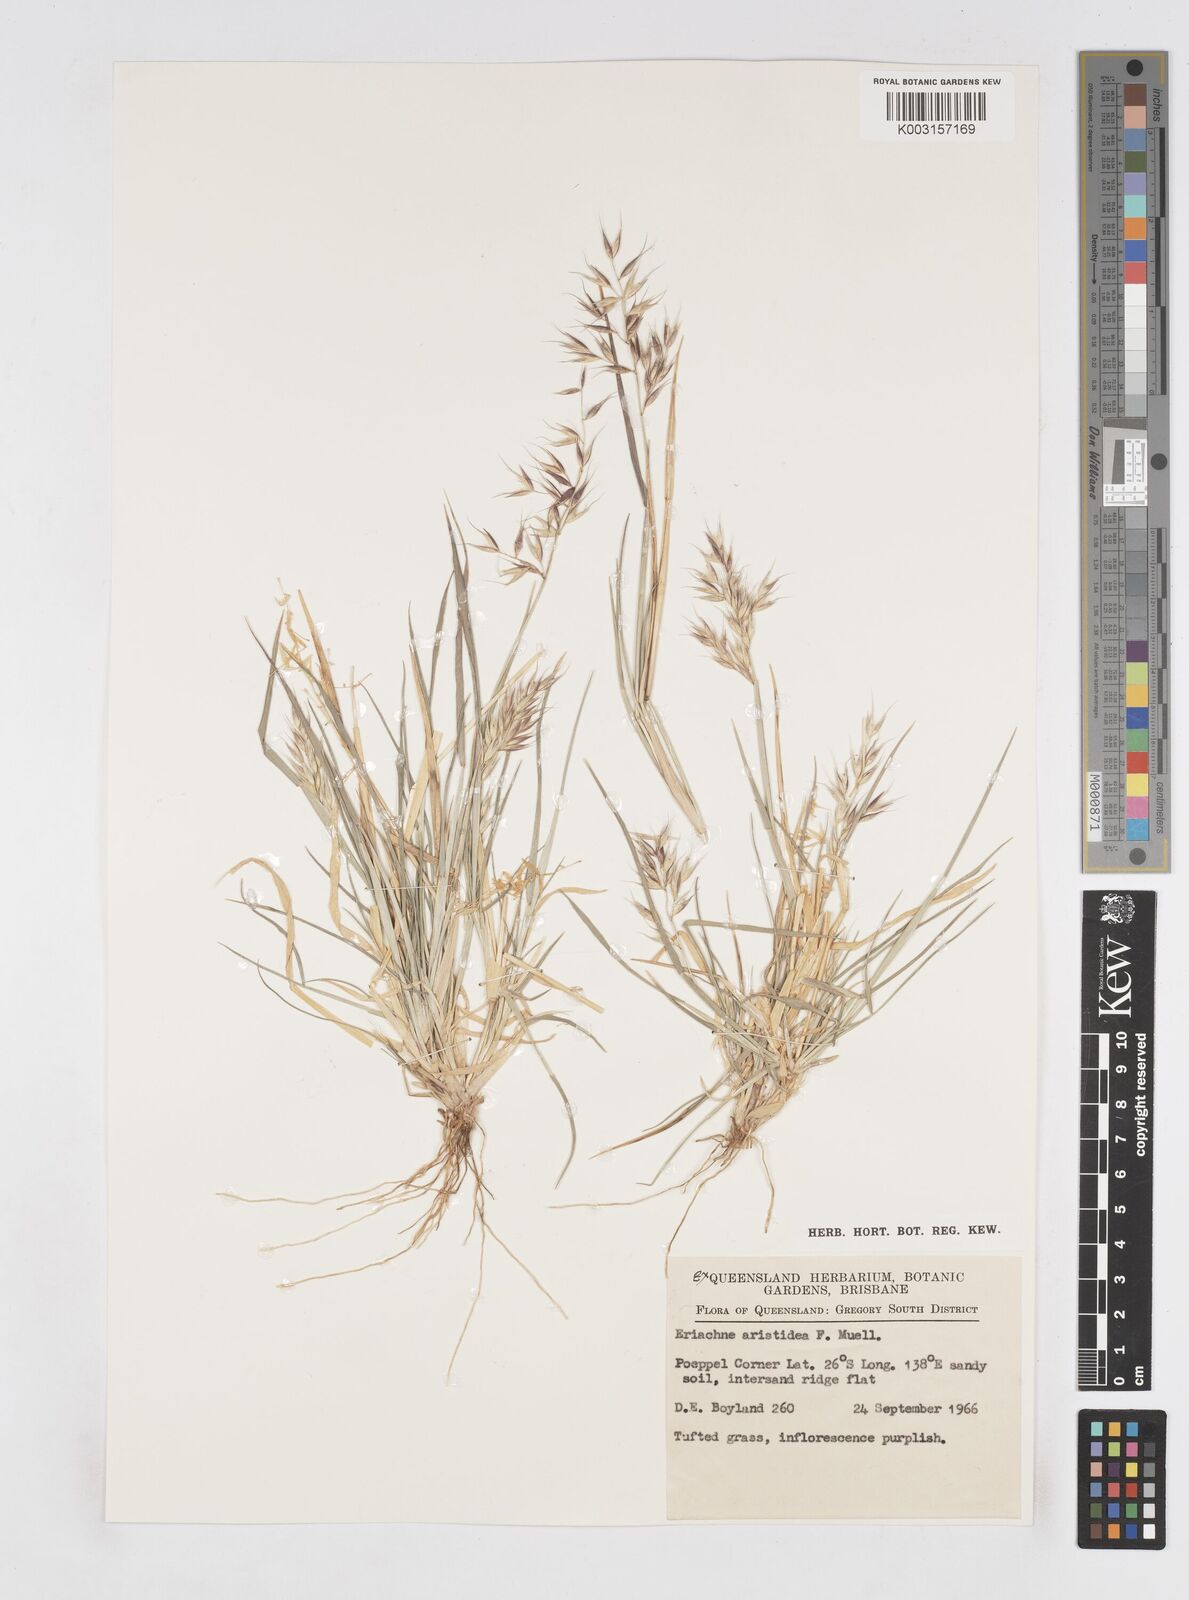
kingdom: Plantae
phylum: Tracheophyta
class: Liliopsida
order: Poales
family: Poaceae
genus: Eriachne
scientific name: Eriachne aristidea
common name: Three-awn wanderrie grass
